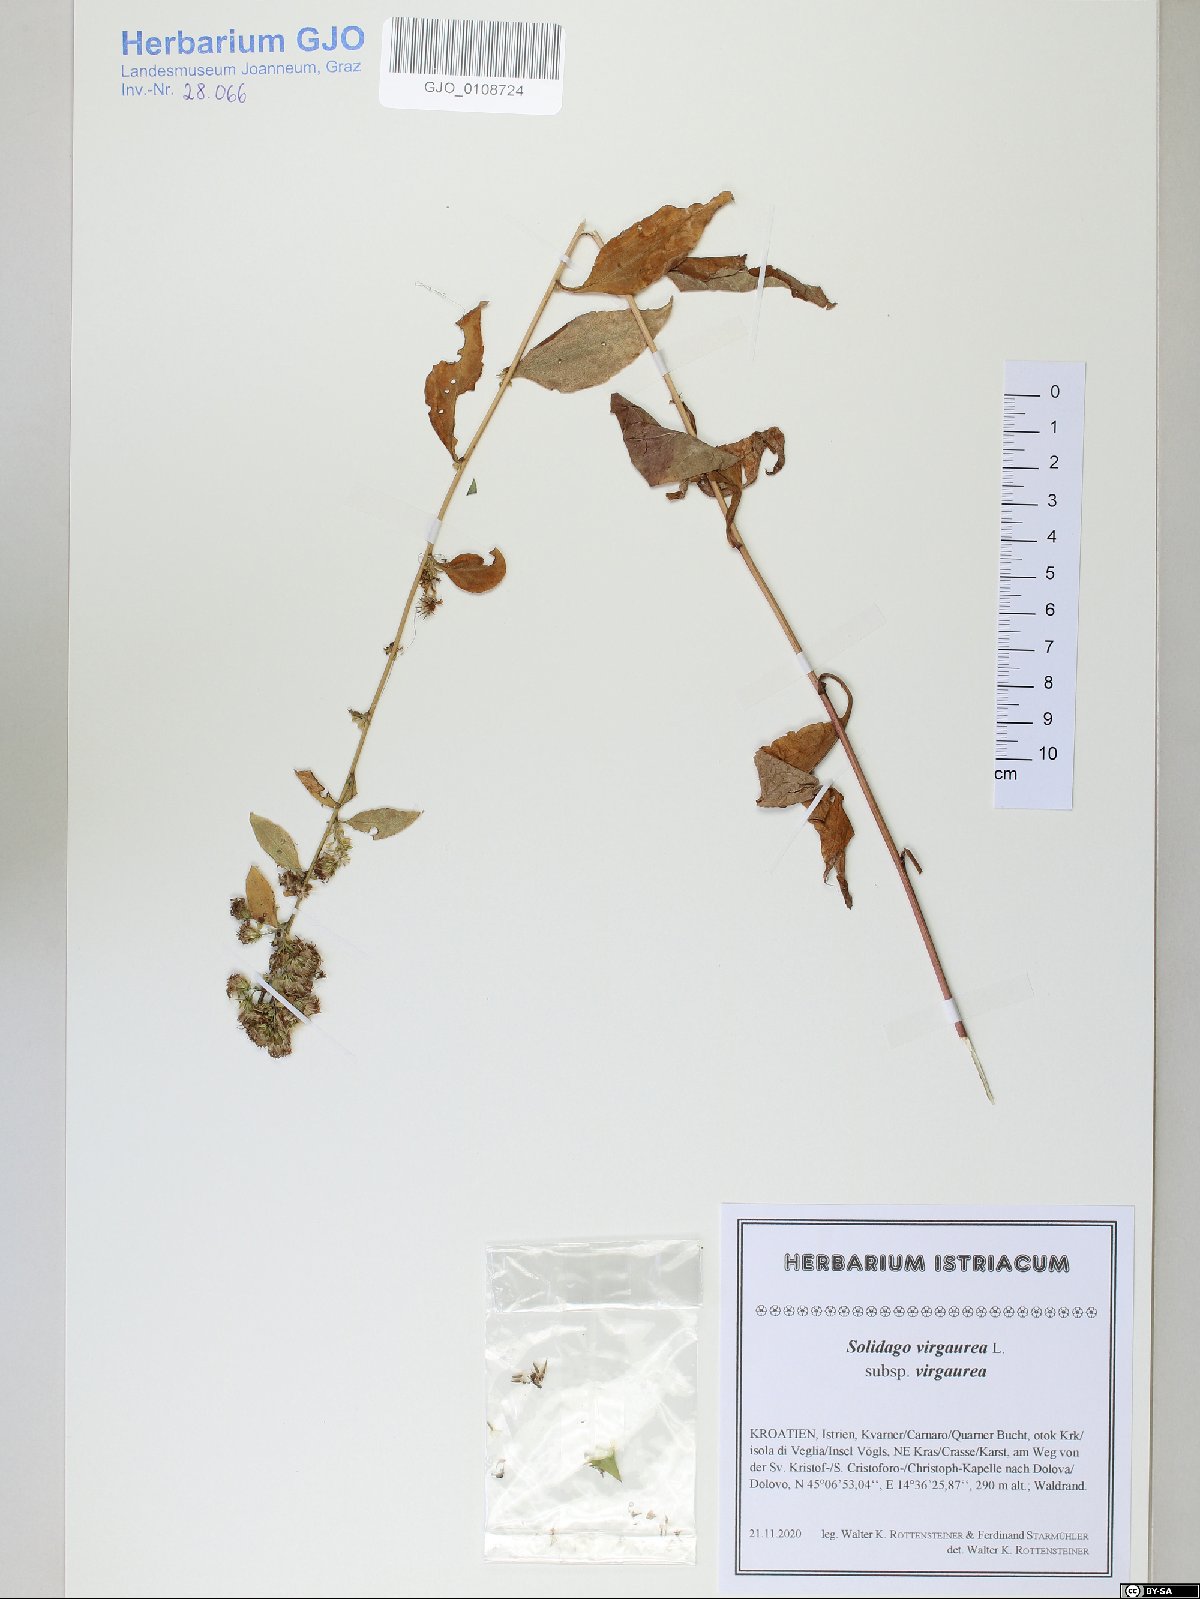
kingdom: Plantae
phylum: Tracheophyta
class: Magnoliopsida
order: Asterales
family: Asteraceae
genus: Solidago
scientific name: Solidago virgaurea
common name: Goldenrod
